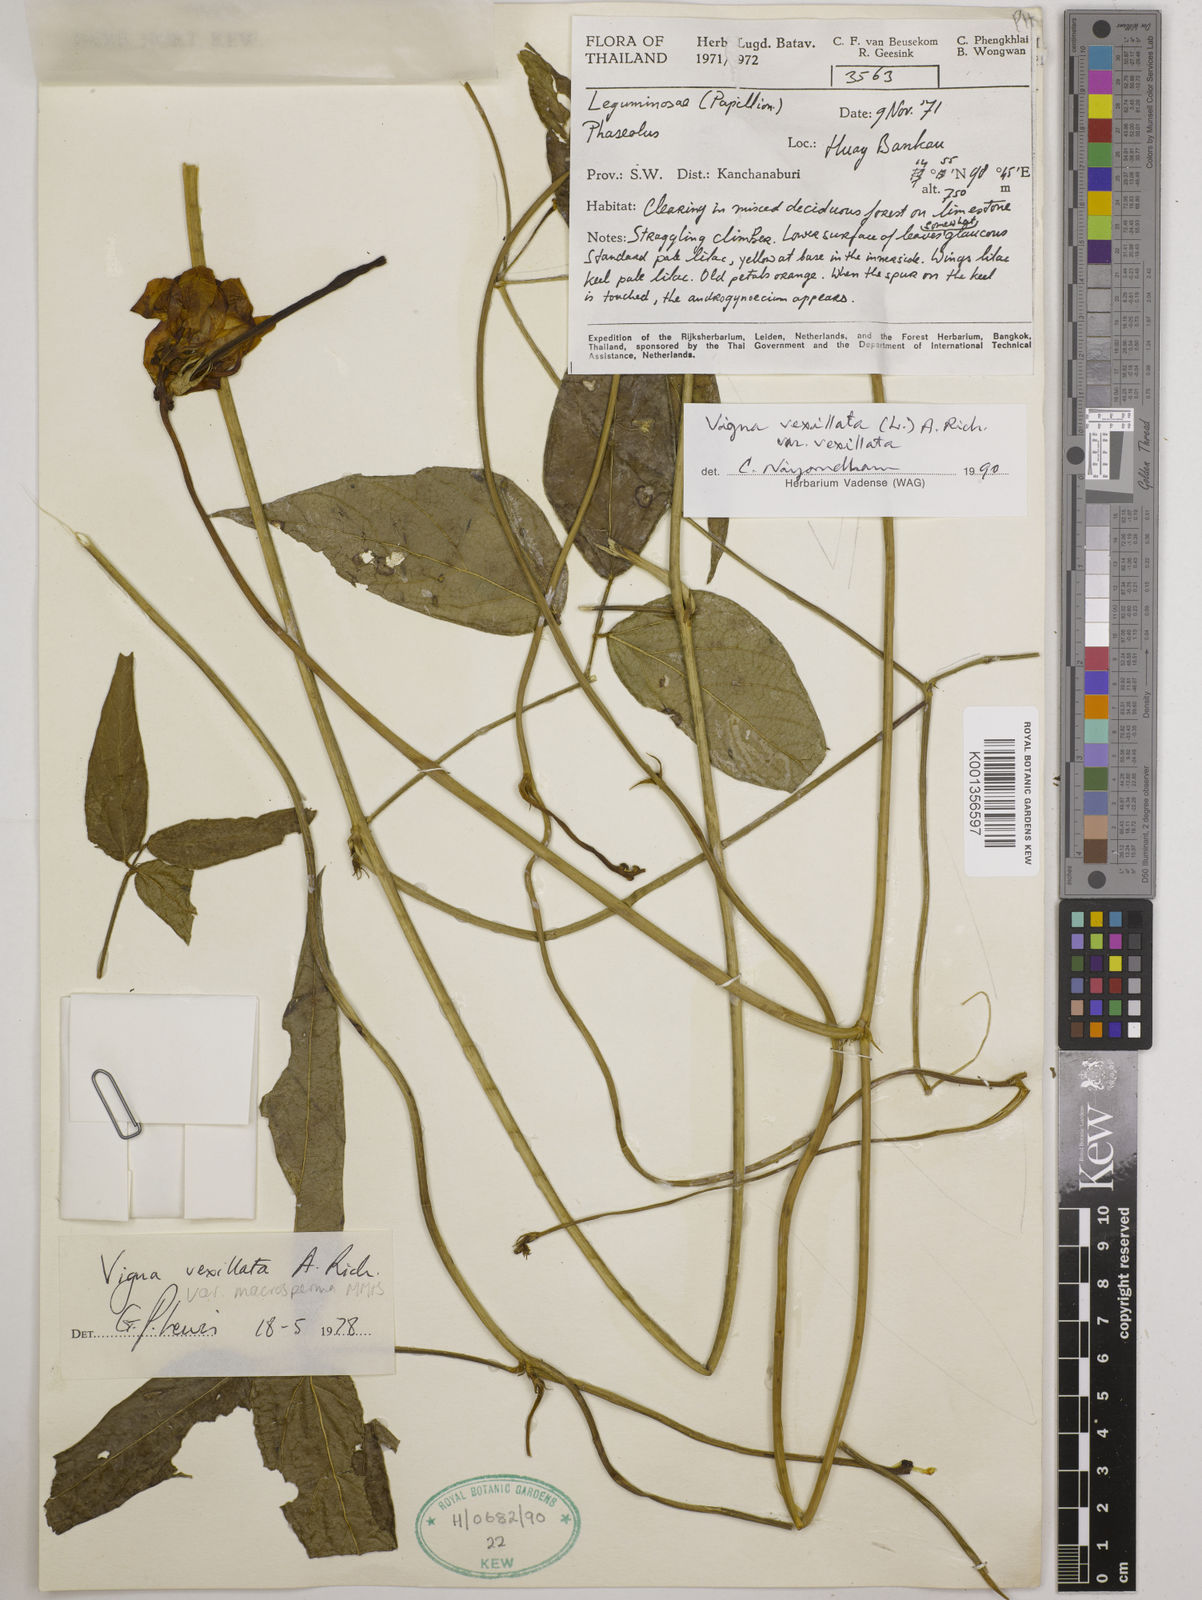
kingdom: Plantae
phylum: Tracheophyta
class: Magnoliopsida
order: Fabales
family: Fabaceae
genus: Vigna
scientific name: Vigna vexillata
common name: Zombi pea
